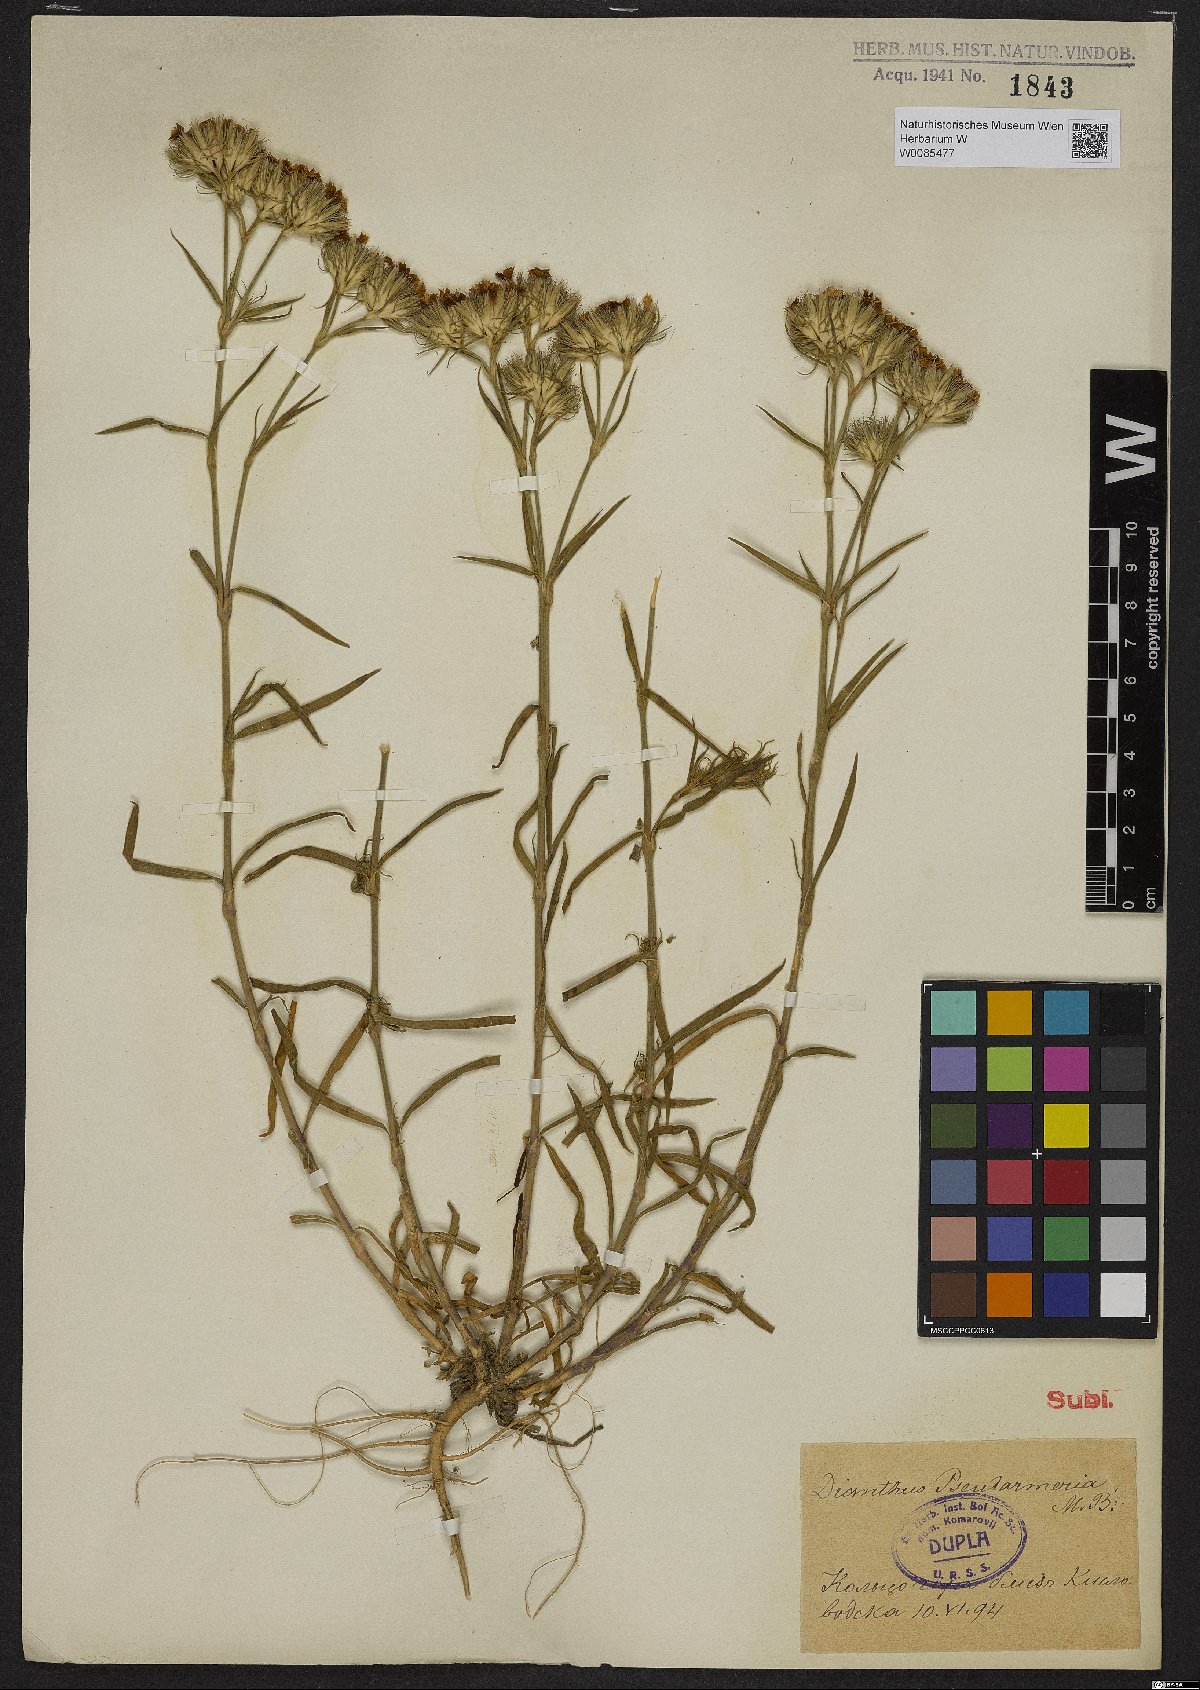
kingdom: Plantae
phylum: Tracheophyta
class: Magnoliopsida
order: Caryophyllales
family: Caryophyllaceae
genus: Dianthus
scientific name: Dianthus pseudarmeria
